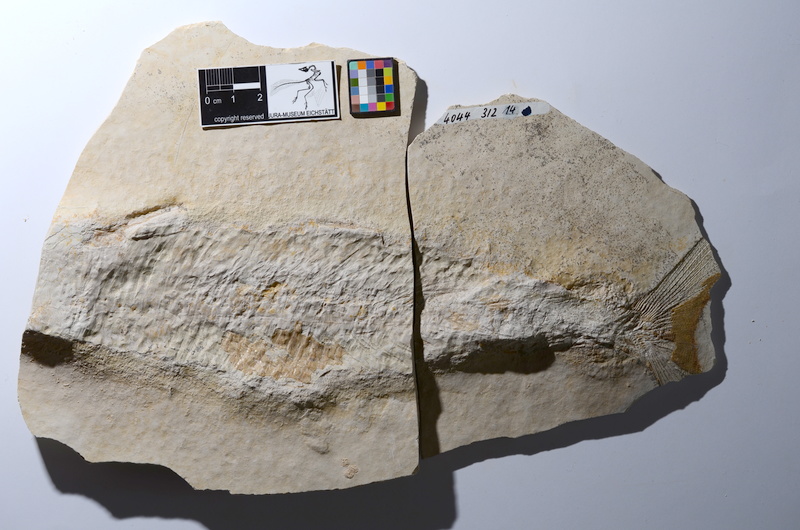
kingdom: Animalia
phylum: Chordata
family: Ankylophoridae
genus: Siemensichthys
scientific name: Siemensichthys macrocephalus
